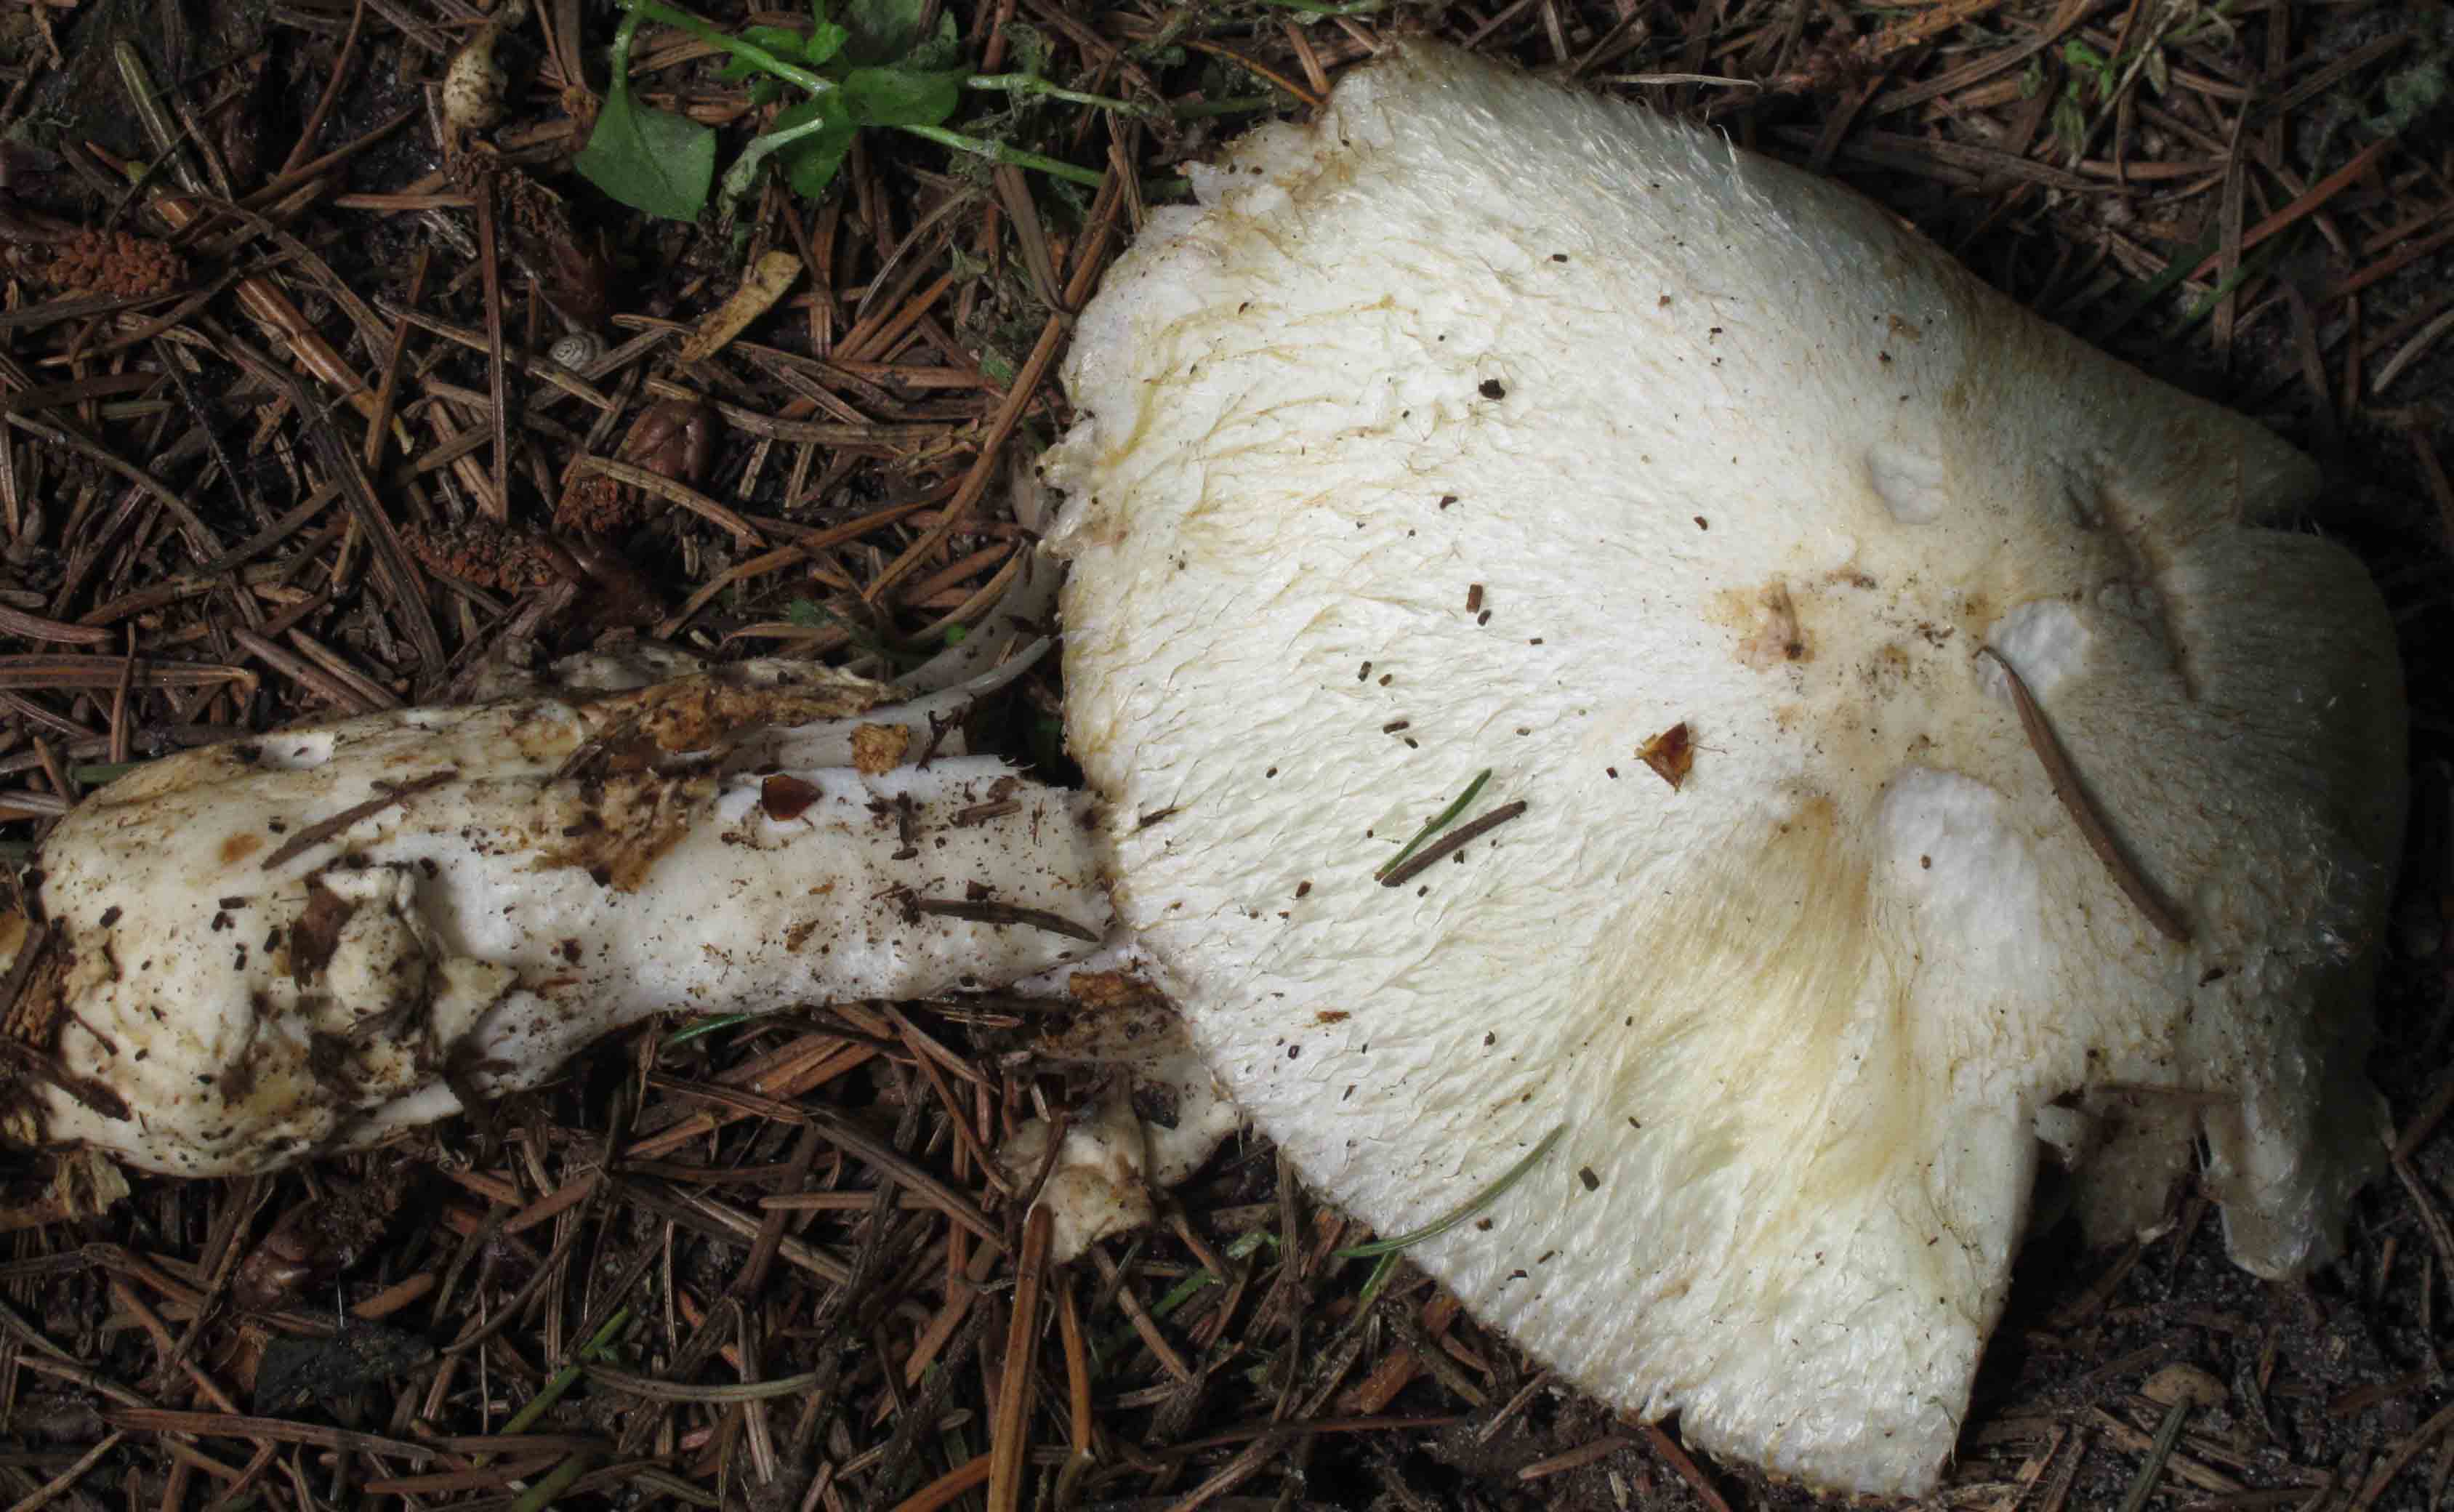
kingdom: Fungi
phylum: Basidiomycota
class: Agaricomycetes
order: Agaricales
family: Pluteaceae
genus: Volvariella
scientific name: Volvariella bombycina
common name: silkehåret posesvamp
